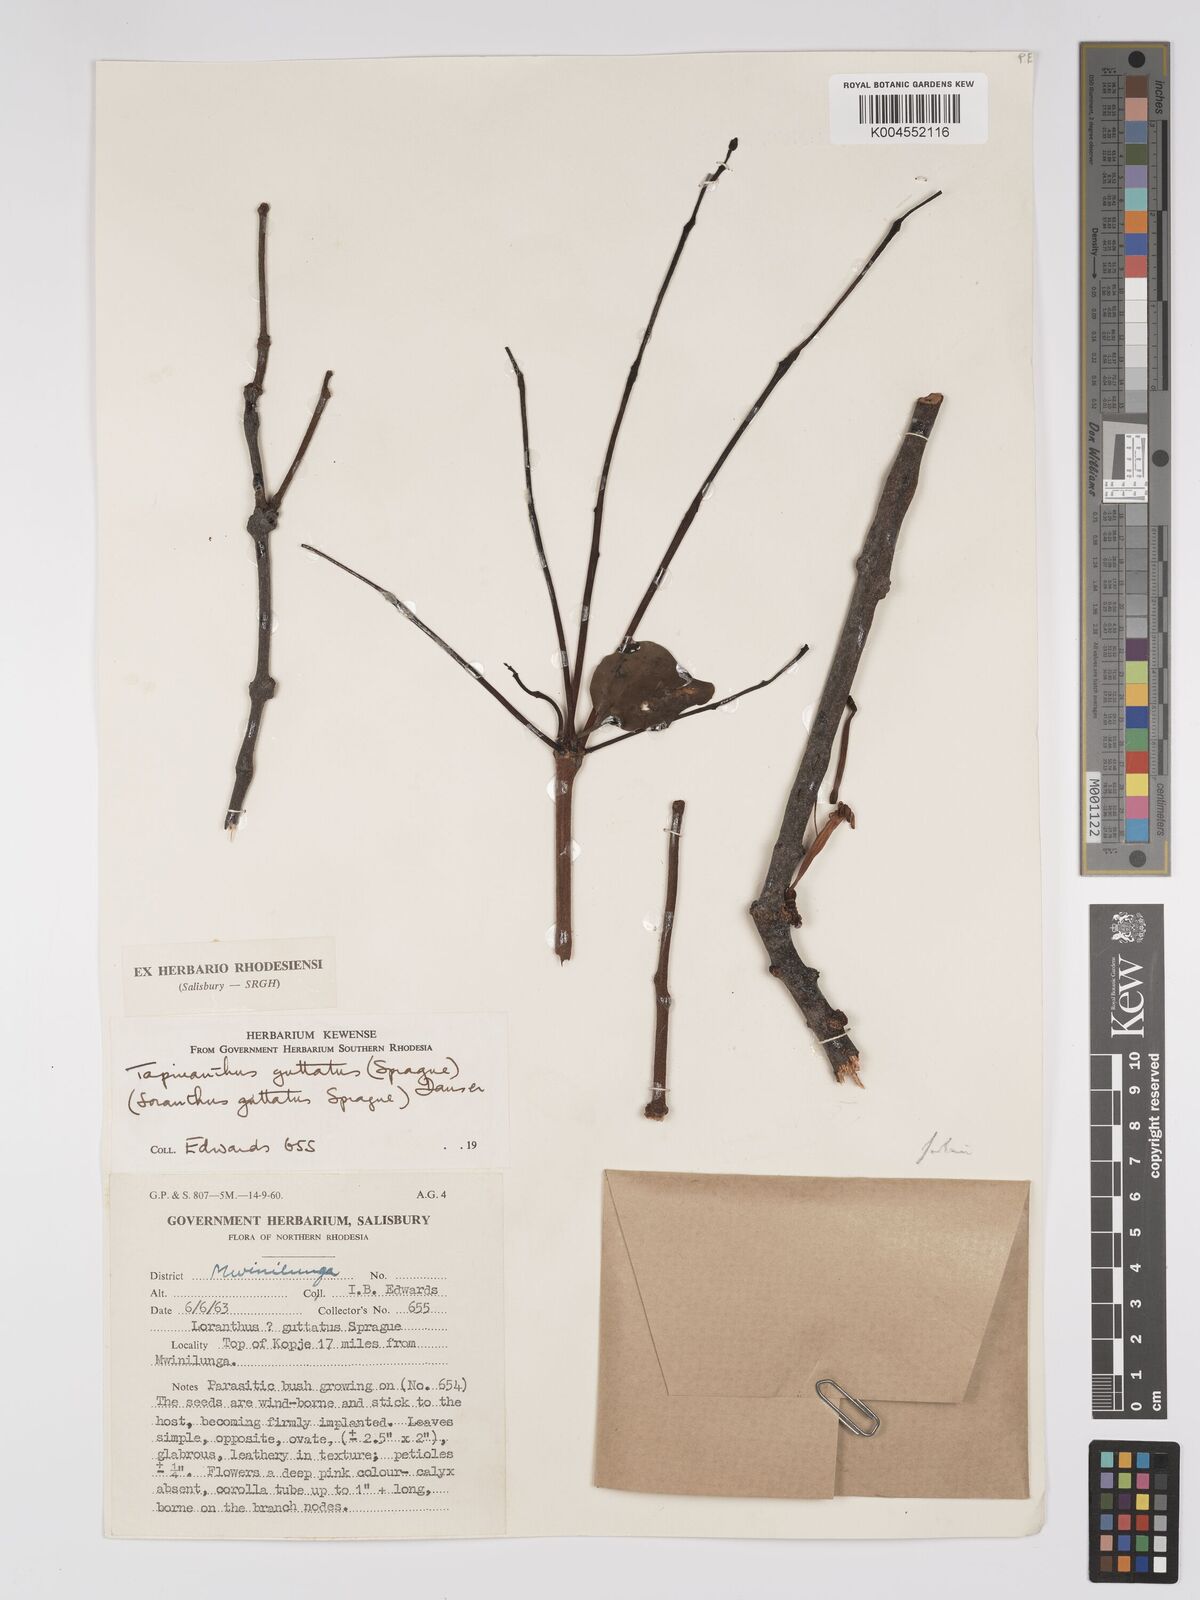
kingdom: Plantae
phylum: Tracheophyta
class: Magnoliopsida
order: Santalales
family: Loranthaceae
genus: Tapinanthus
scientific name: Tapinanthus forbesii
